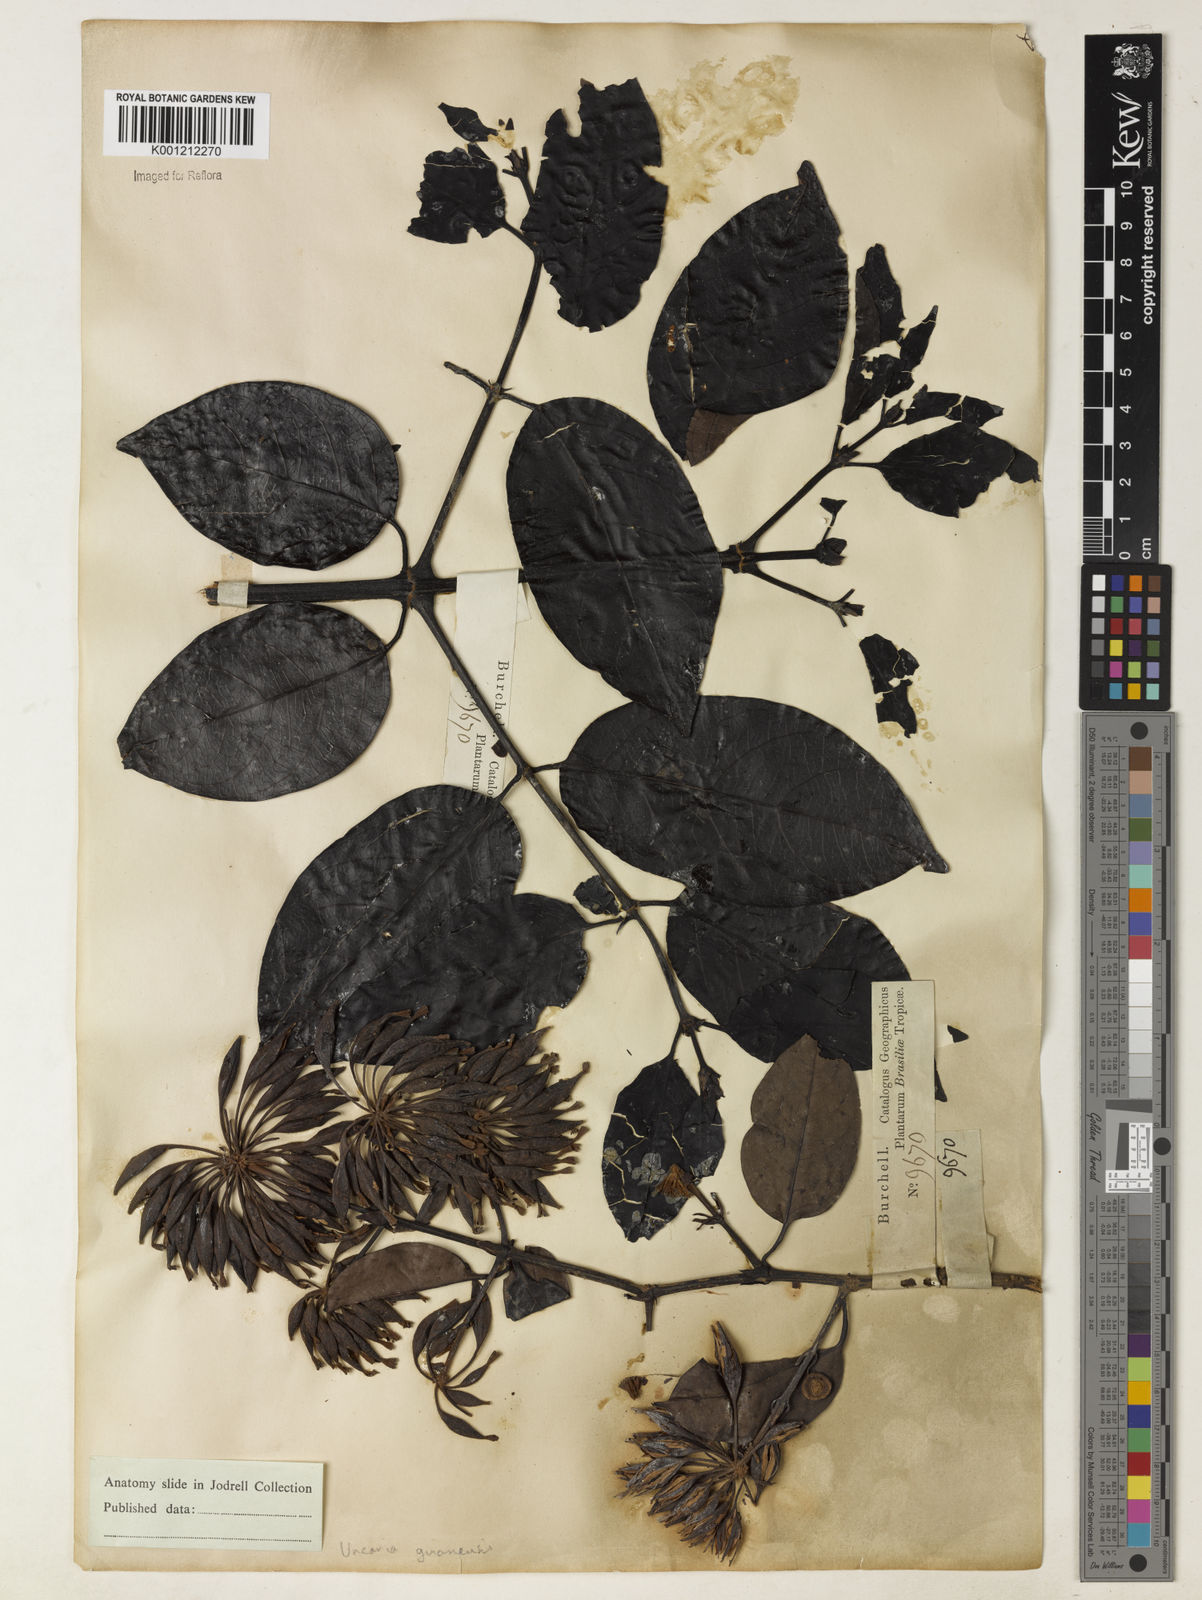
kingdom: Plantae
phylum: Tracheophyta
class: Magnoliopsida
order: Gentianales
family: Rubiaceae
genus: Uncaria
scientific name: Uncaria guianensis
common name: Cat's-claw
